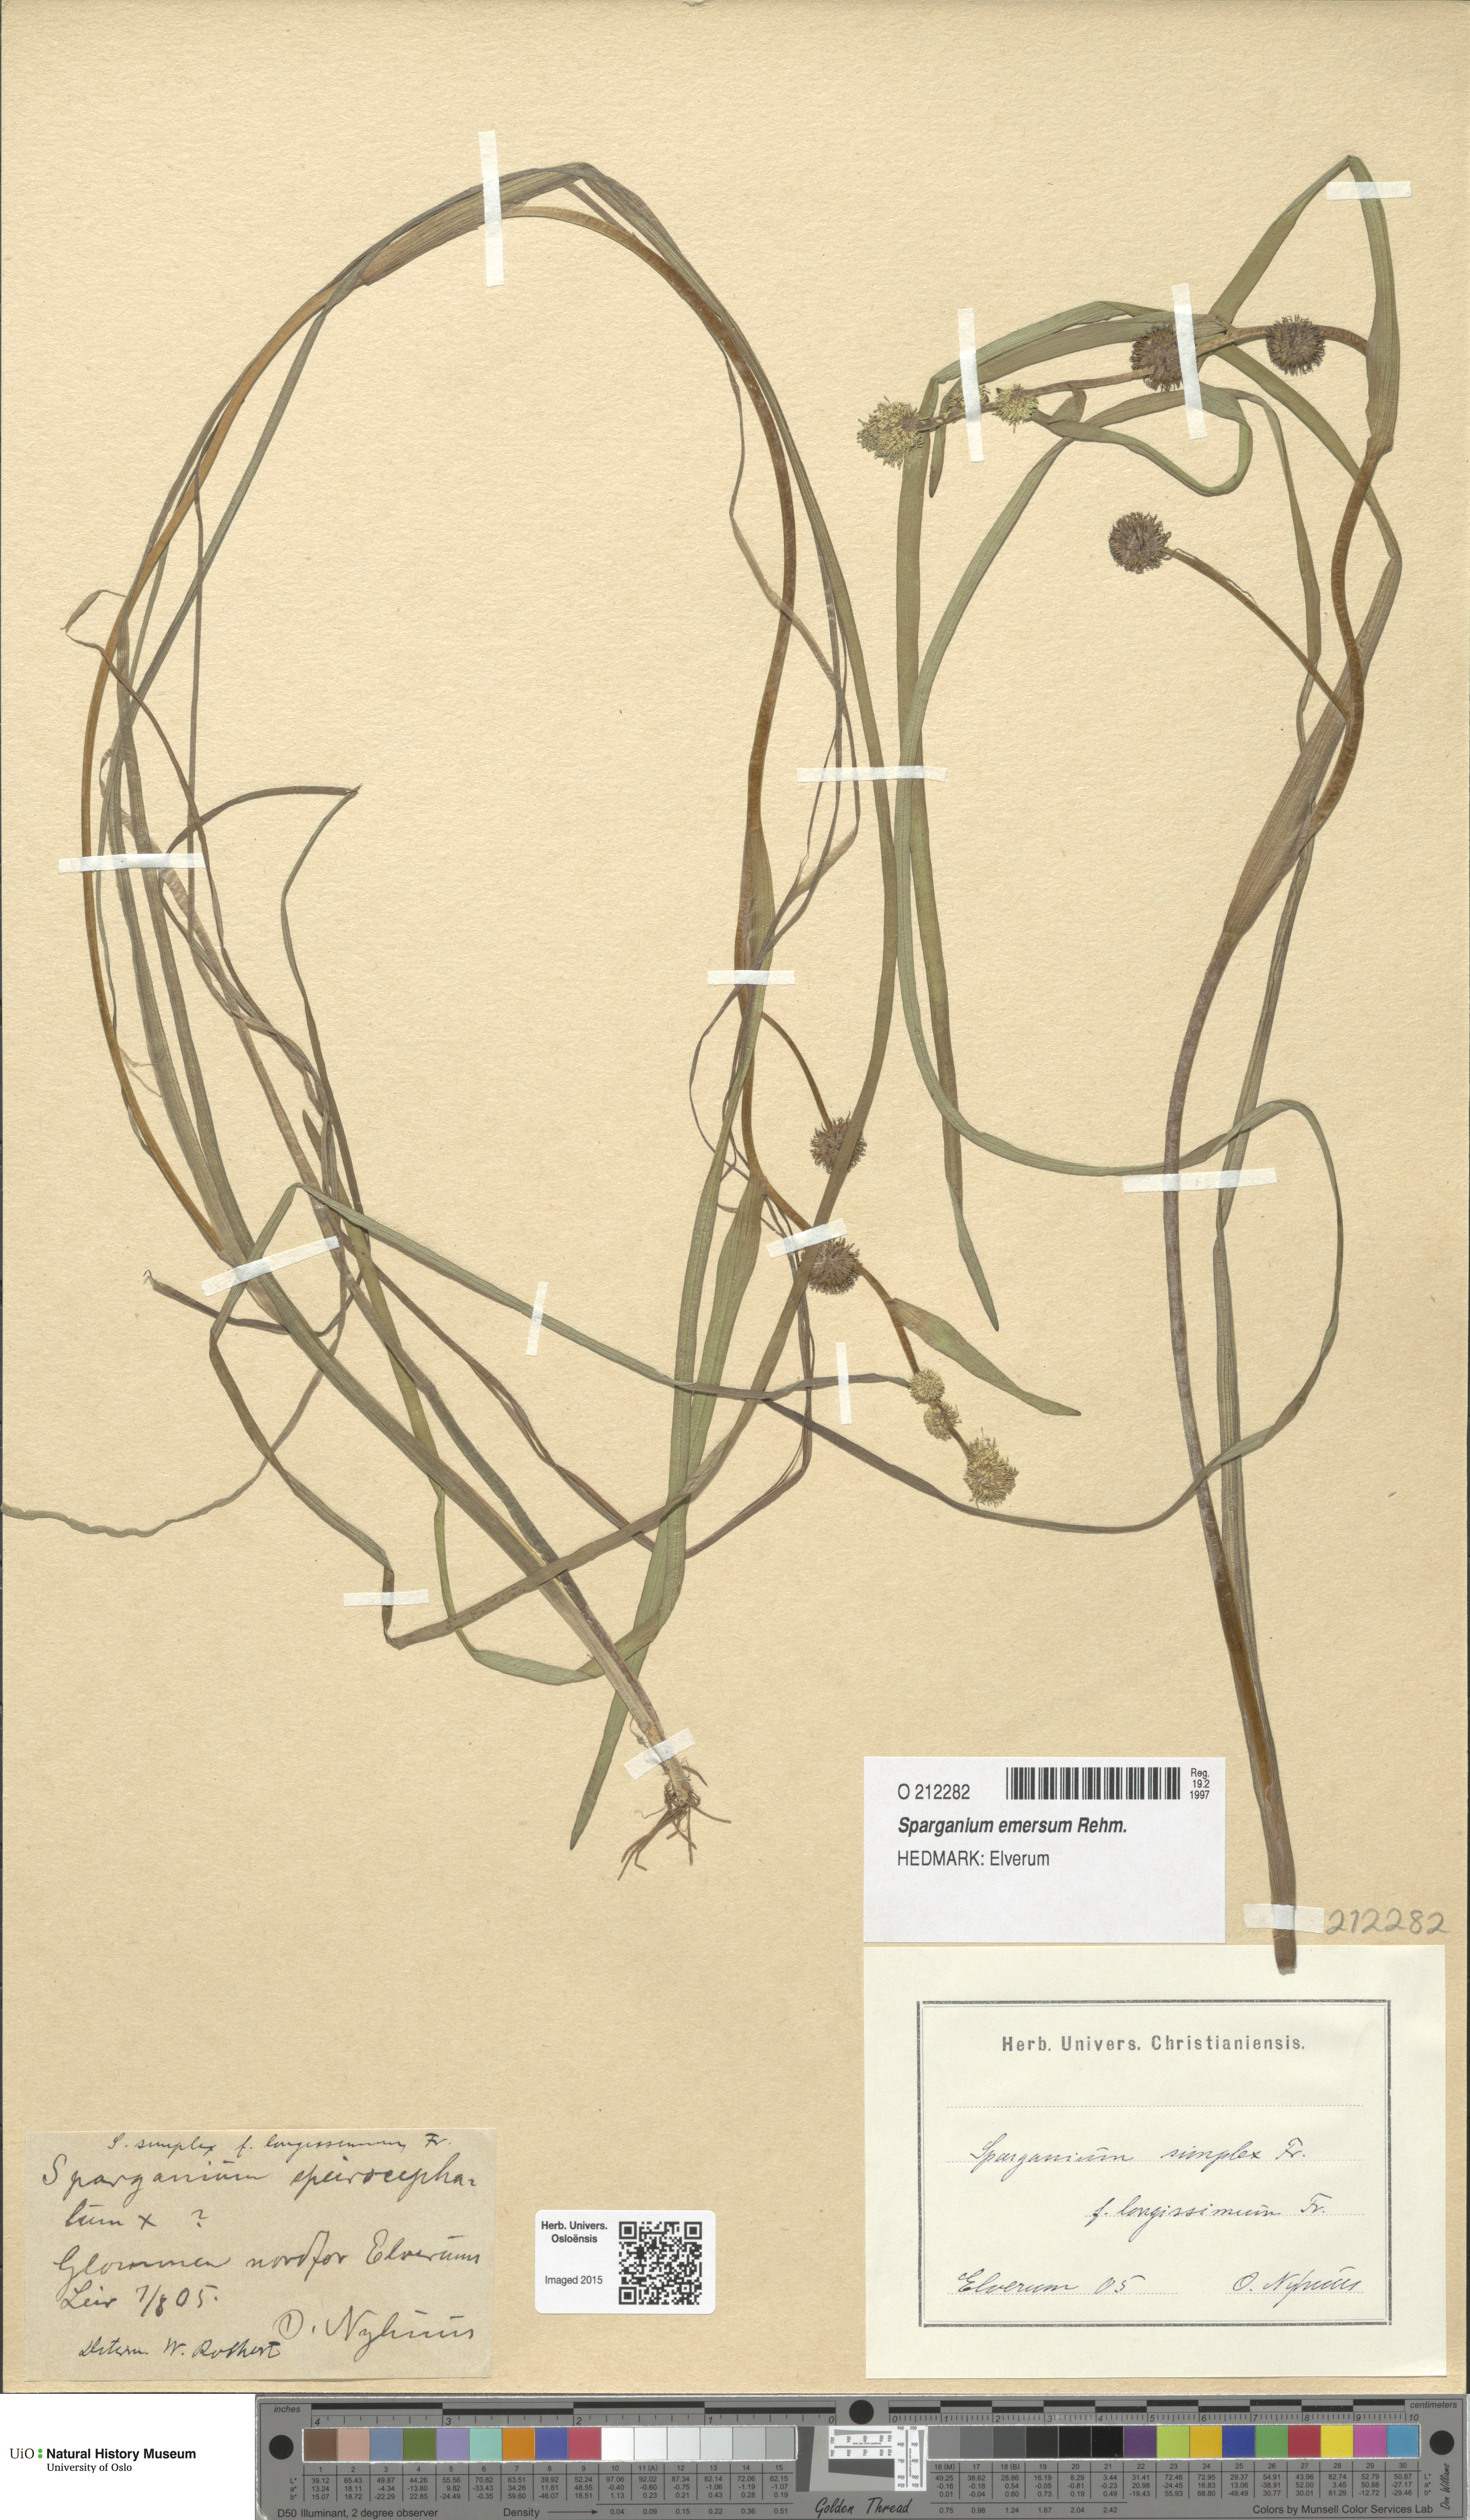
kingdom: Plantae
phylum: Tracheophyta
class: Liliopsida
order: Poales
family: Typhaceae
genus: Sparganium
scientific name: Sparganium emersum
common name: Unbranched bur-reed
